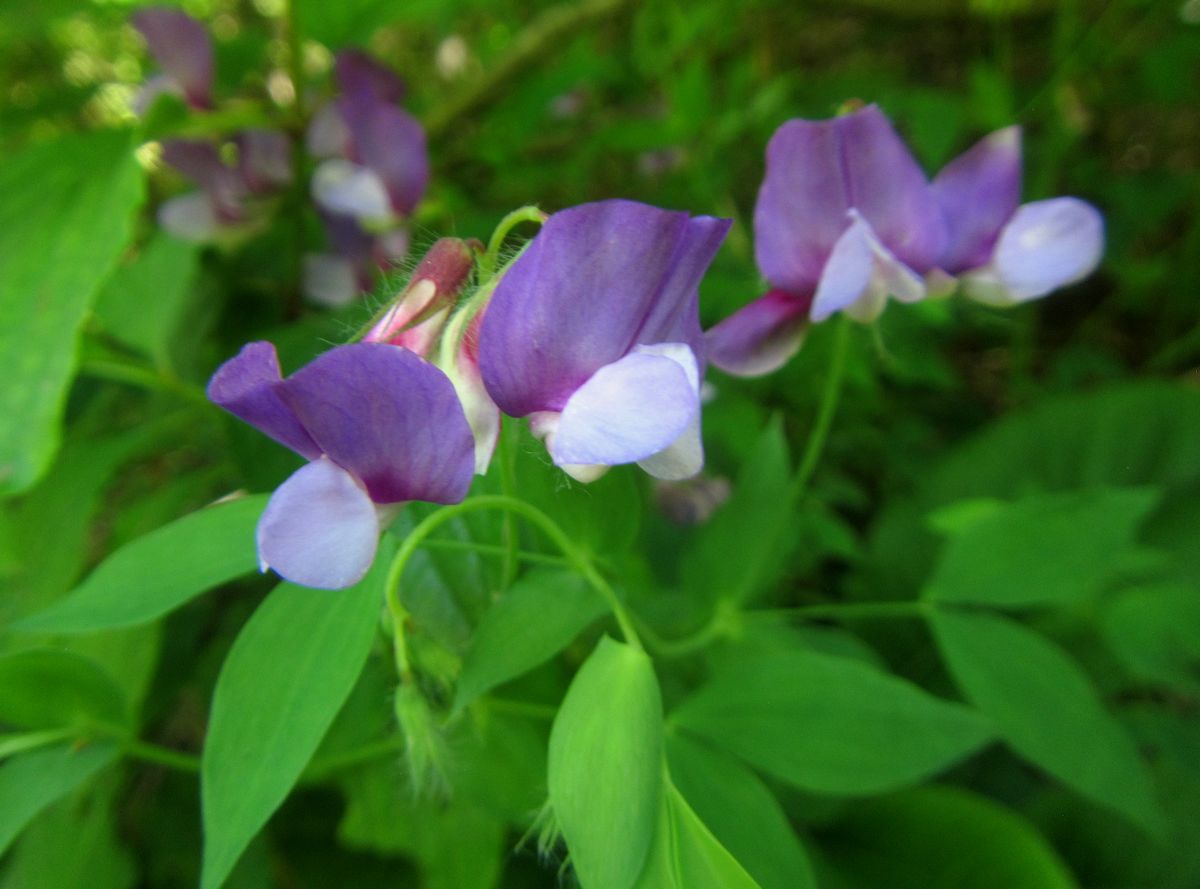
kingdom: Plantae
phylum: Tracheophyta
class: Magnoliopsida
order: Fabales
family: Fabaceae
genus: Lathyrus
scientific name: Lathyrus laxiflorus
